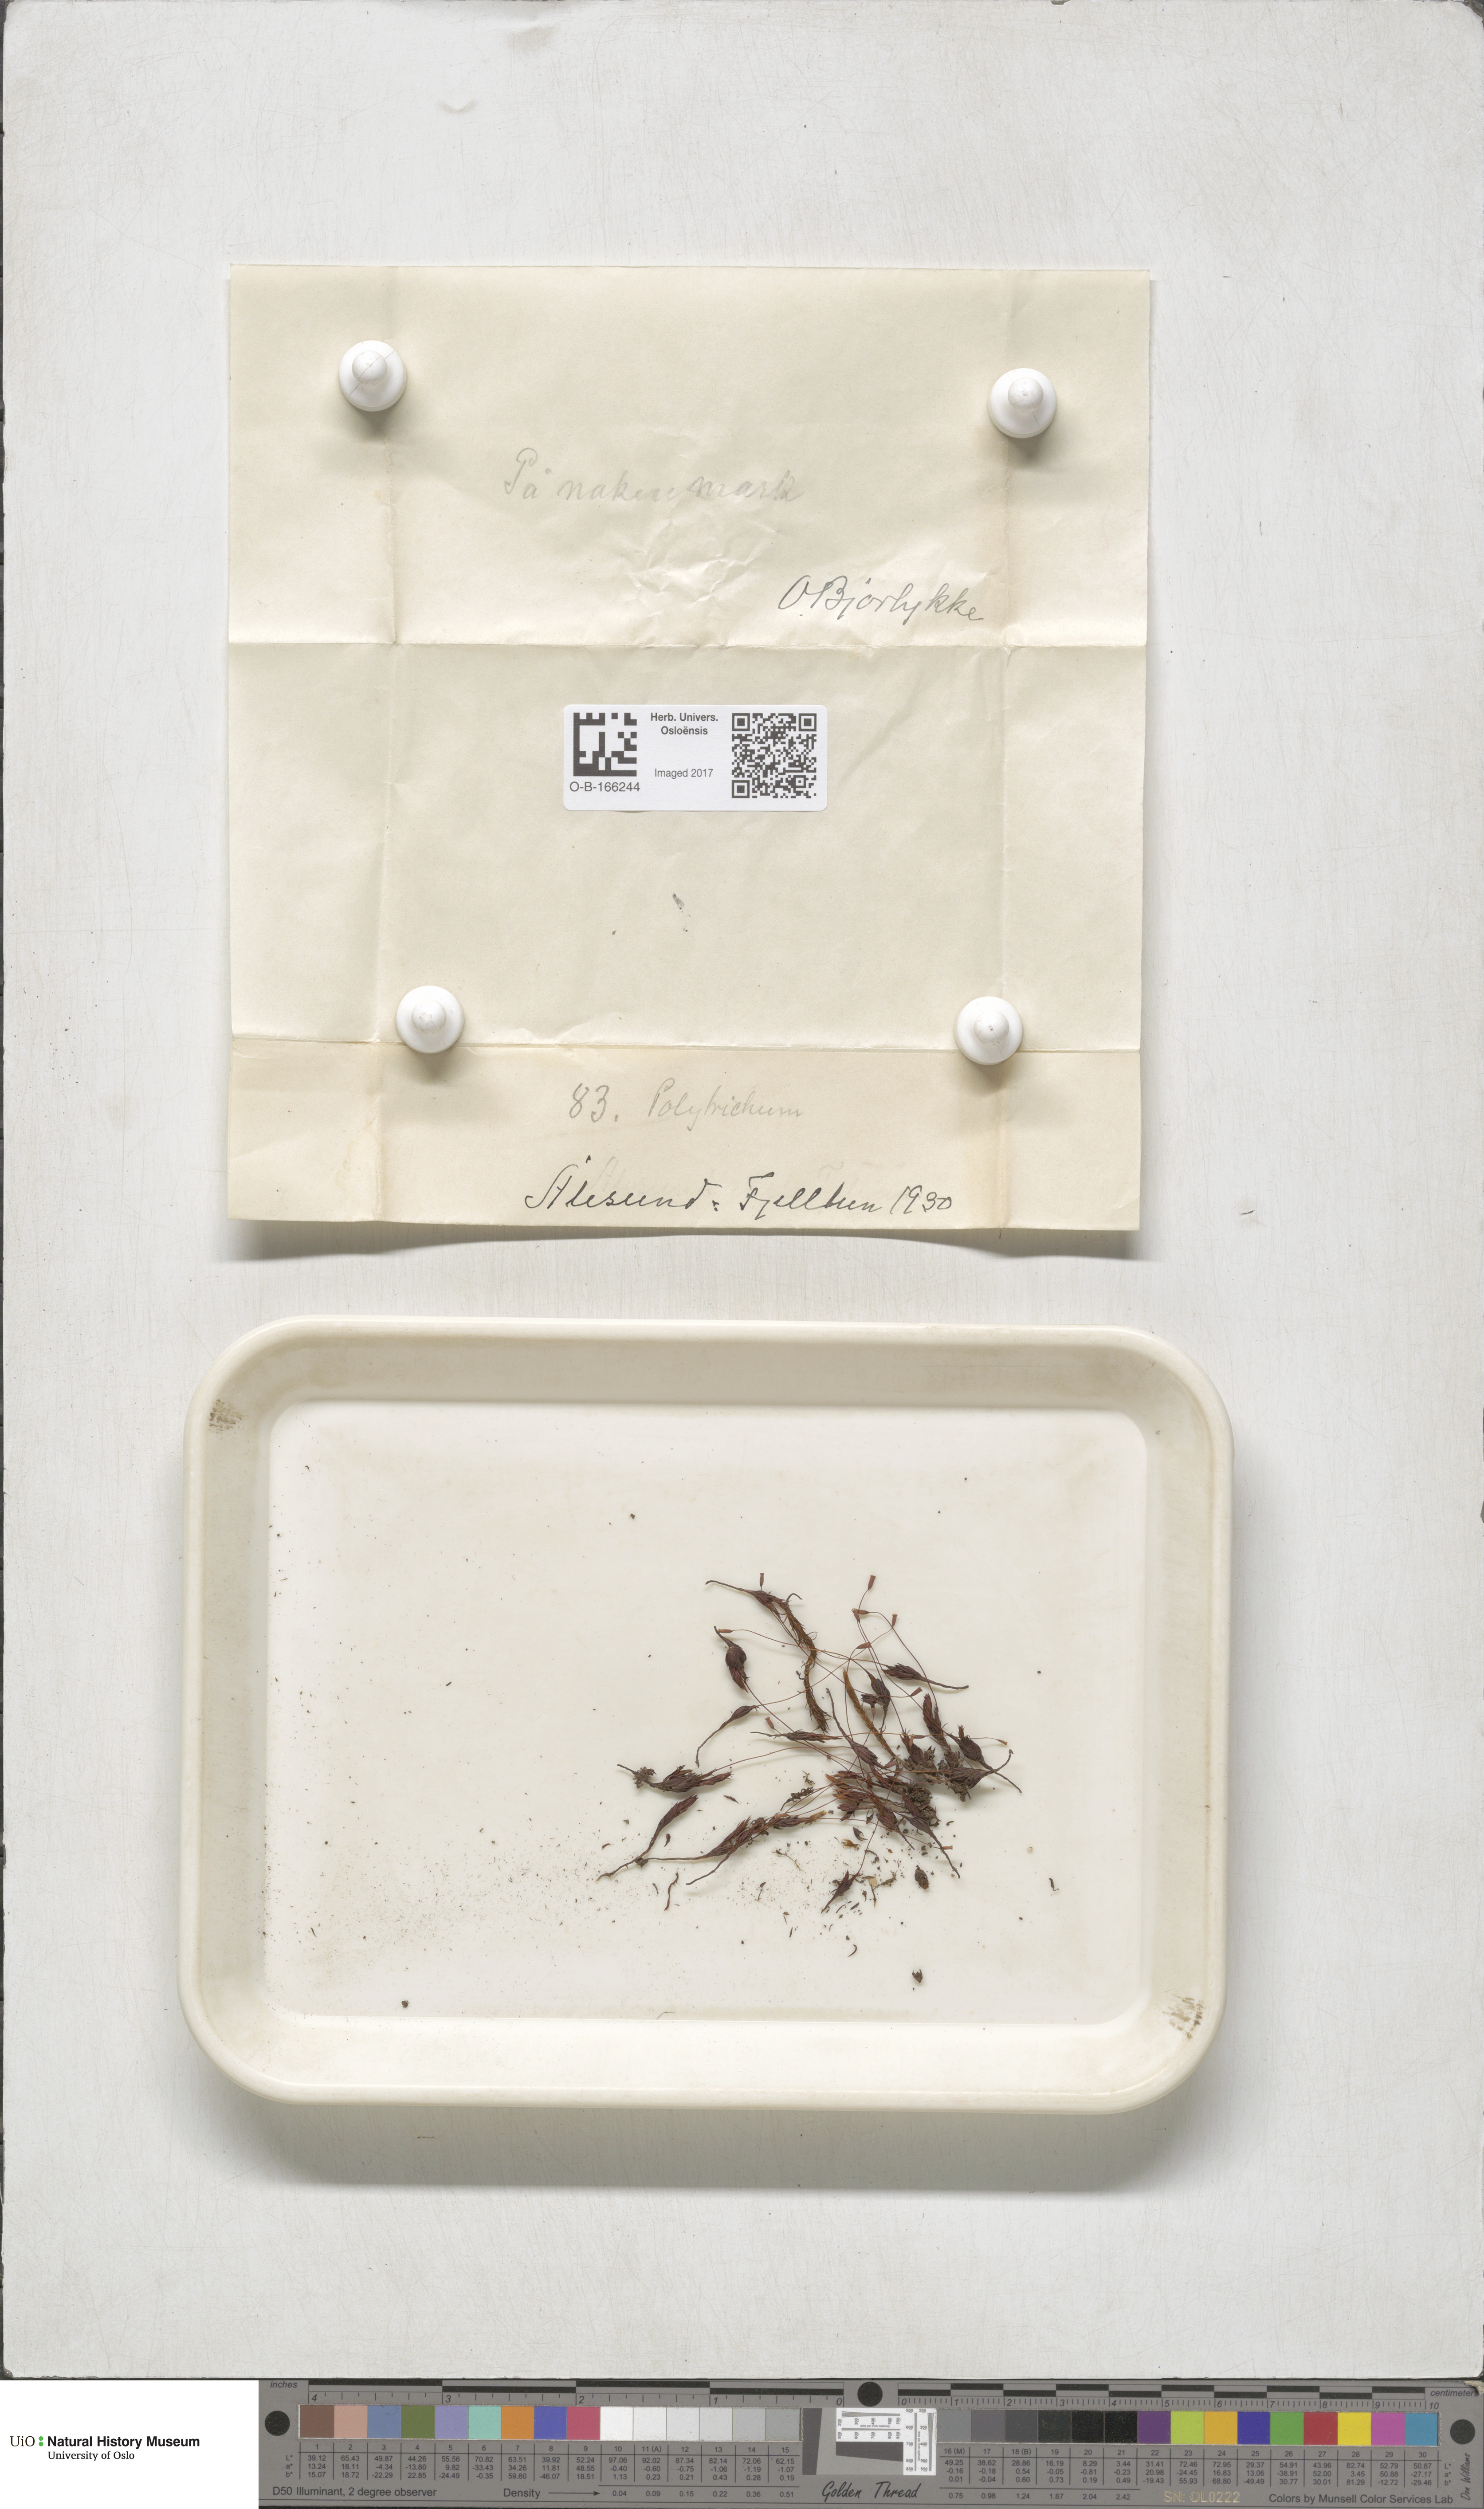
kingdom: Plantae
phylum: Bryophyta
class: Polytrichopsida
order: Polytrichales
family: Polytrichaceae
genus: Polytrichum
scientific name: Polytrichum
